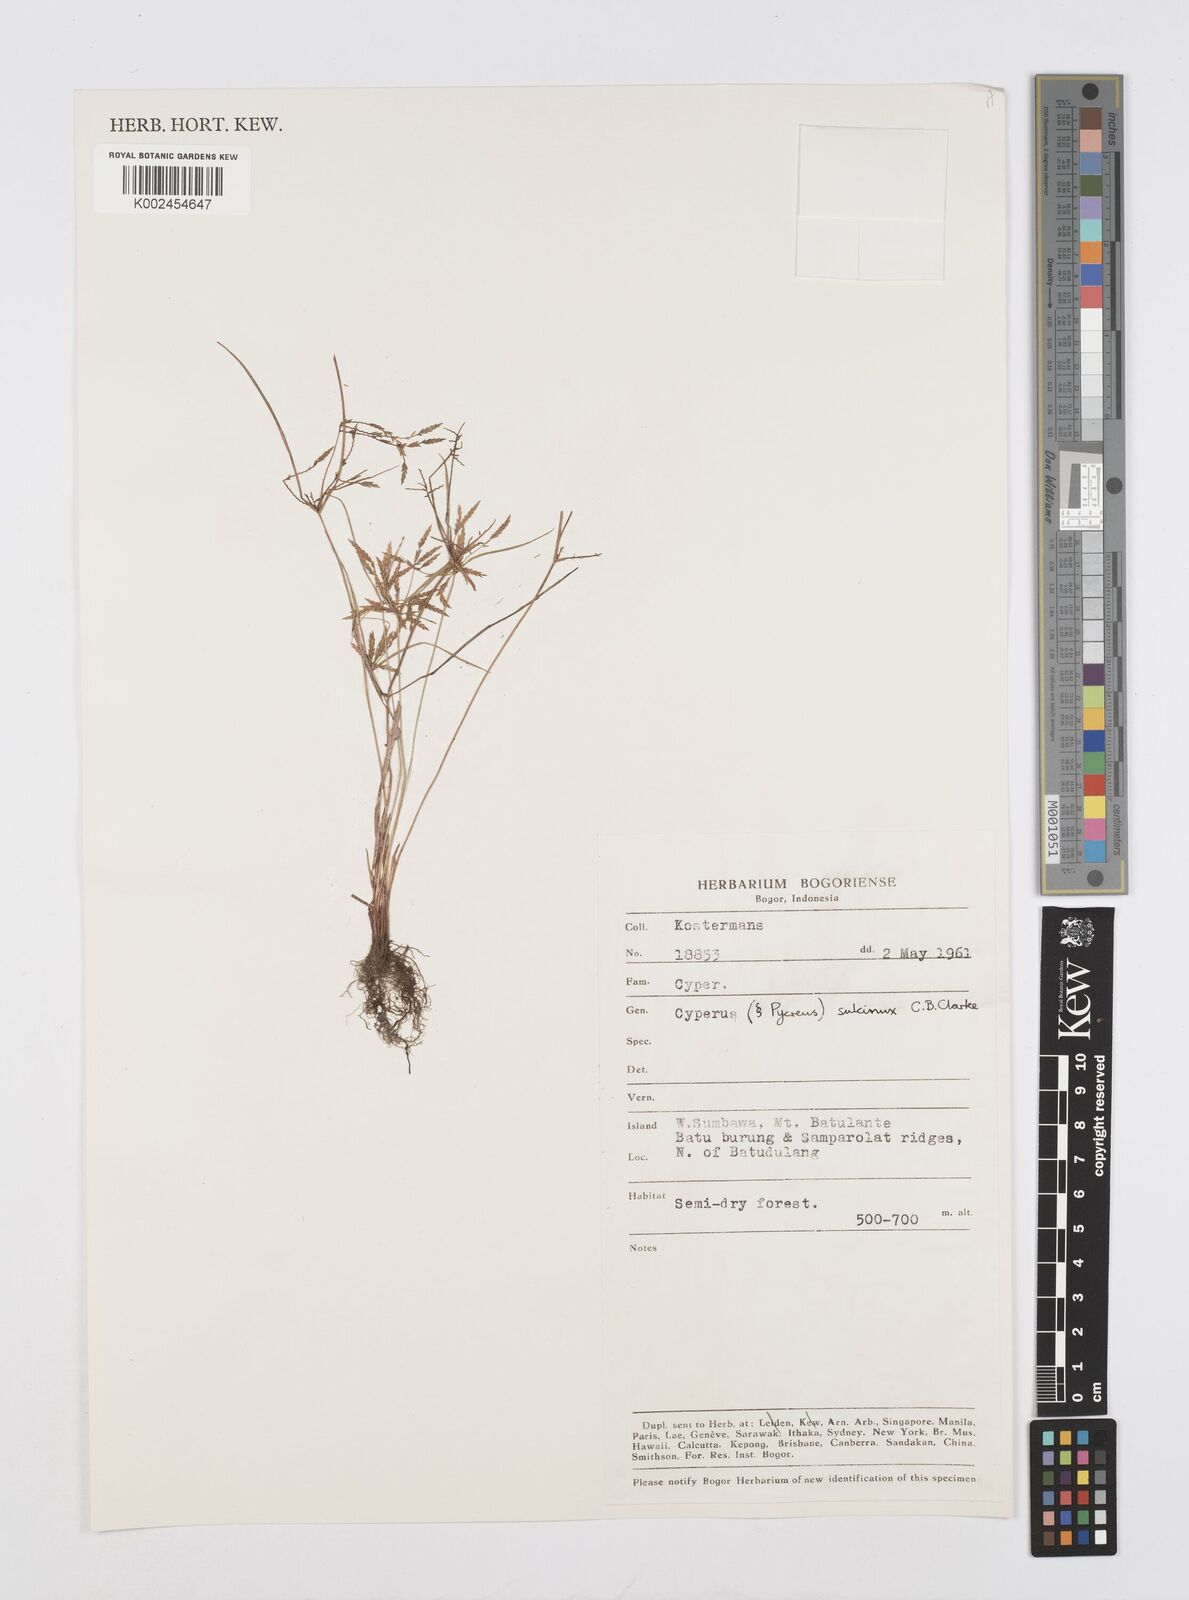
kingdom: Plantae
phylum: Tracheophyta
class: Liliopsida
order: Poales
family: Cyperaceae
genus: Cyperus
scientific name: Cyperus sulcinux
